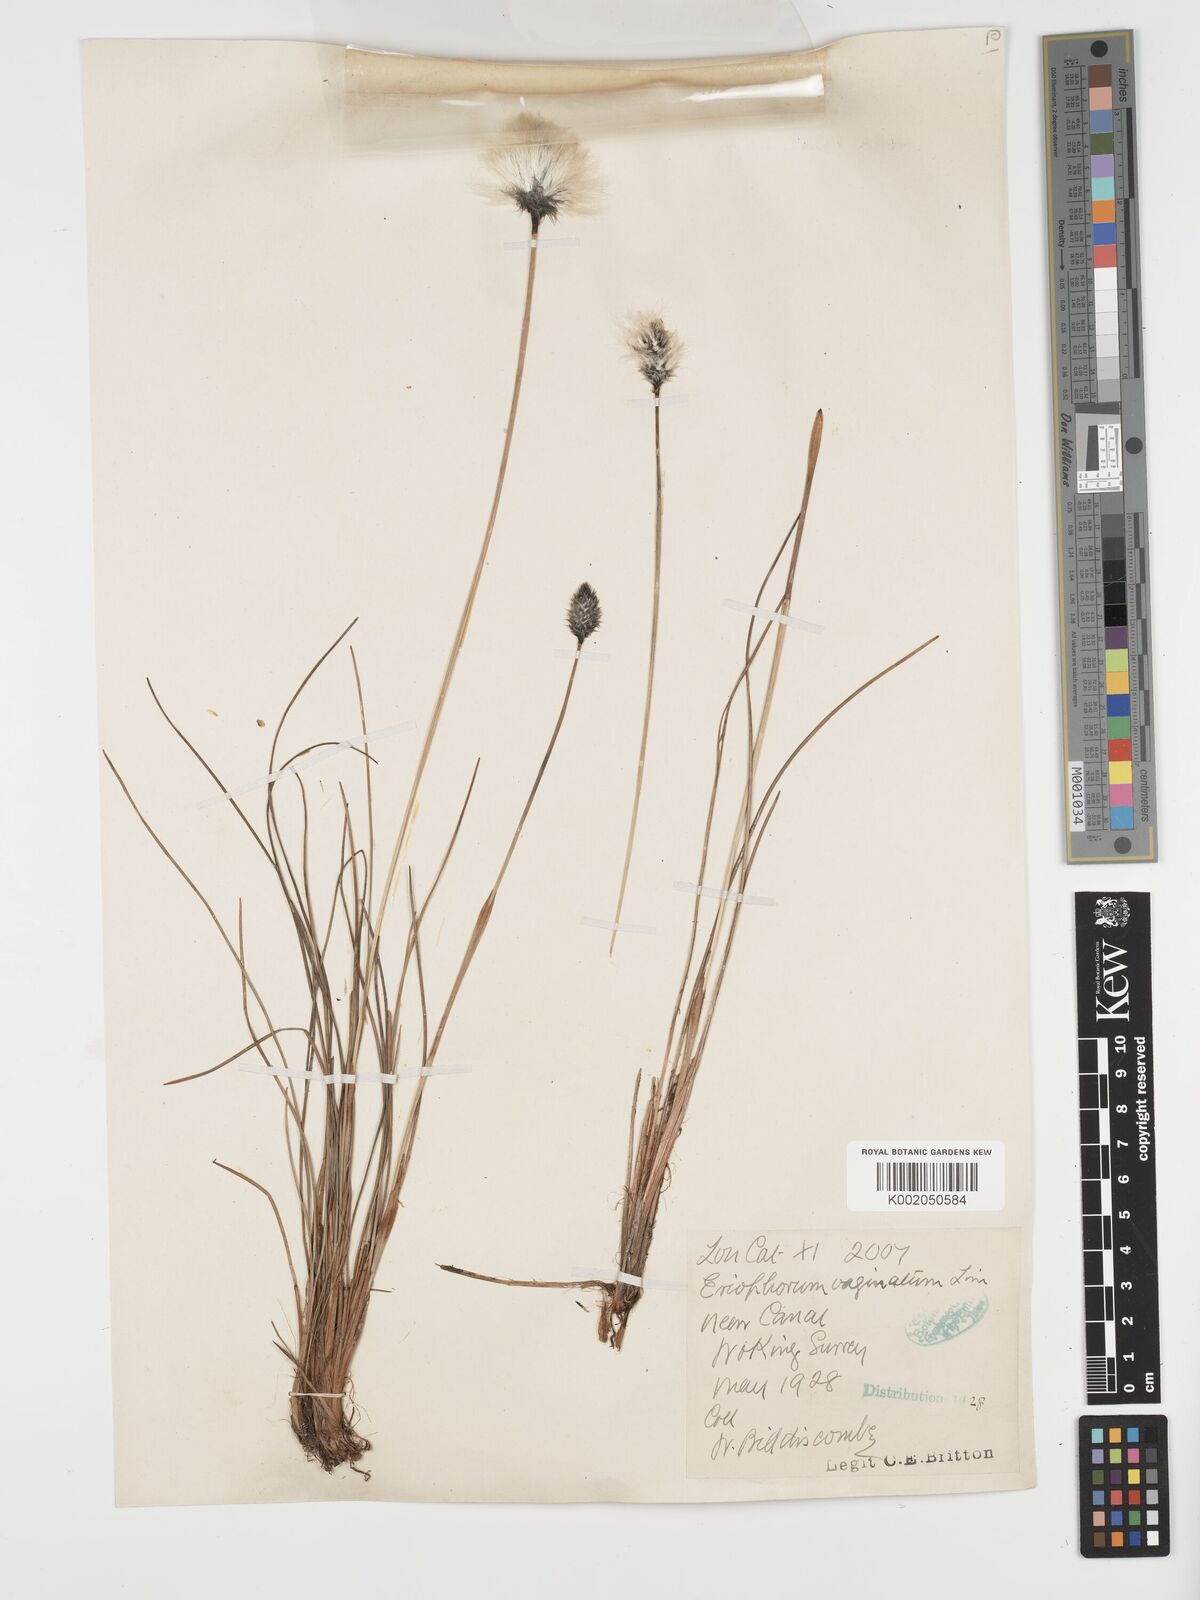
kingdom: Plantae
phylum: Tracheophyta
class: Liliopsida
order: Poales
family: Cyperaceae
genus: Eriophorum
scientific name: Eriophorum vaginatum
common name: Hare's-tail cottongrass
